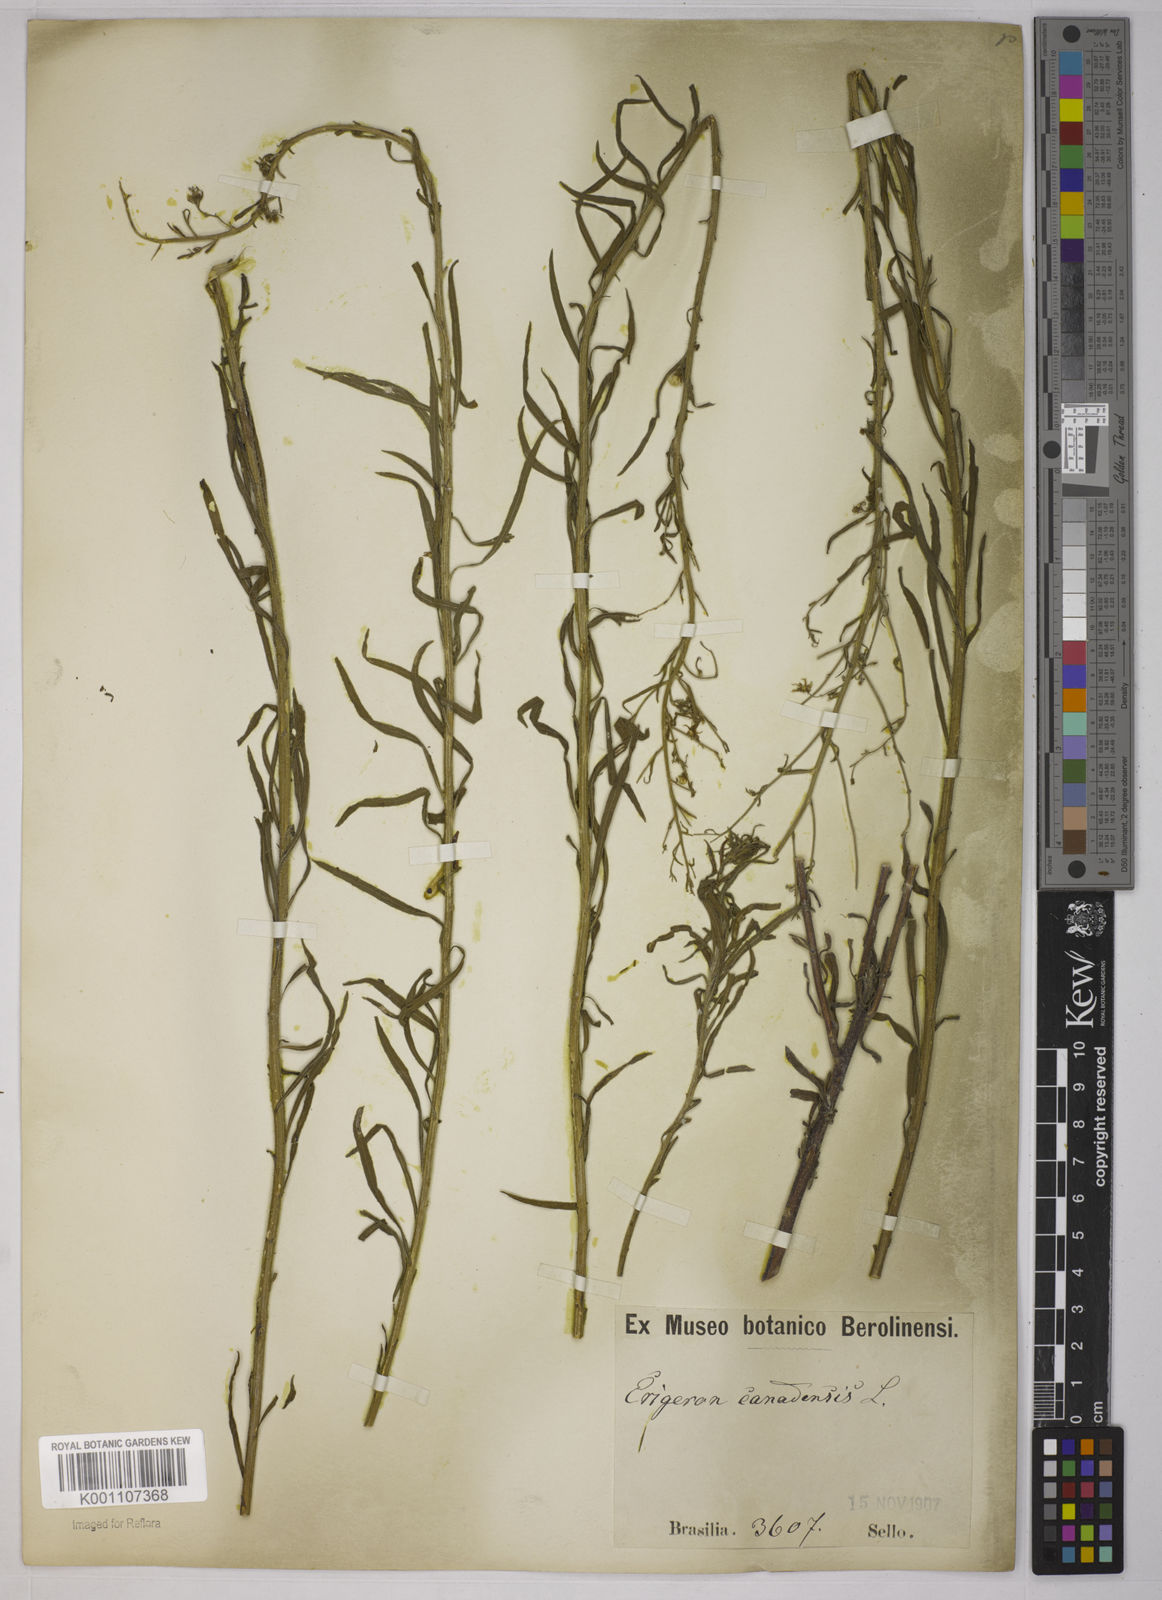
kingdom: Plantae
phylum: Tracheophyta
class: Magnoliopsida
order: Asterales
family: Asteraceae
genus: Erigeron
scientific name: Erigeron bonariensis
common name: Argentine fleabane
